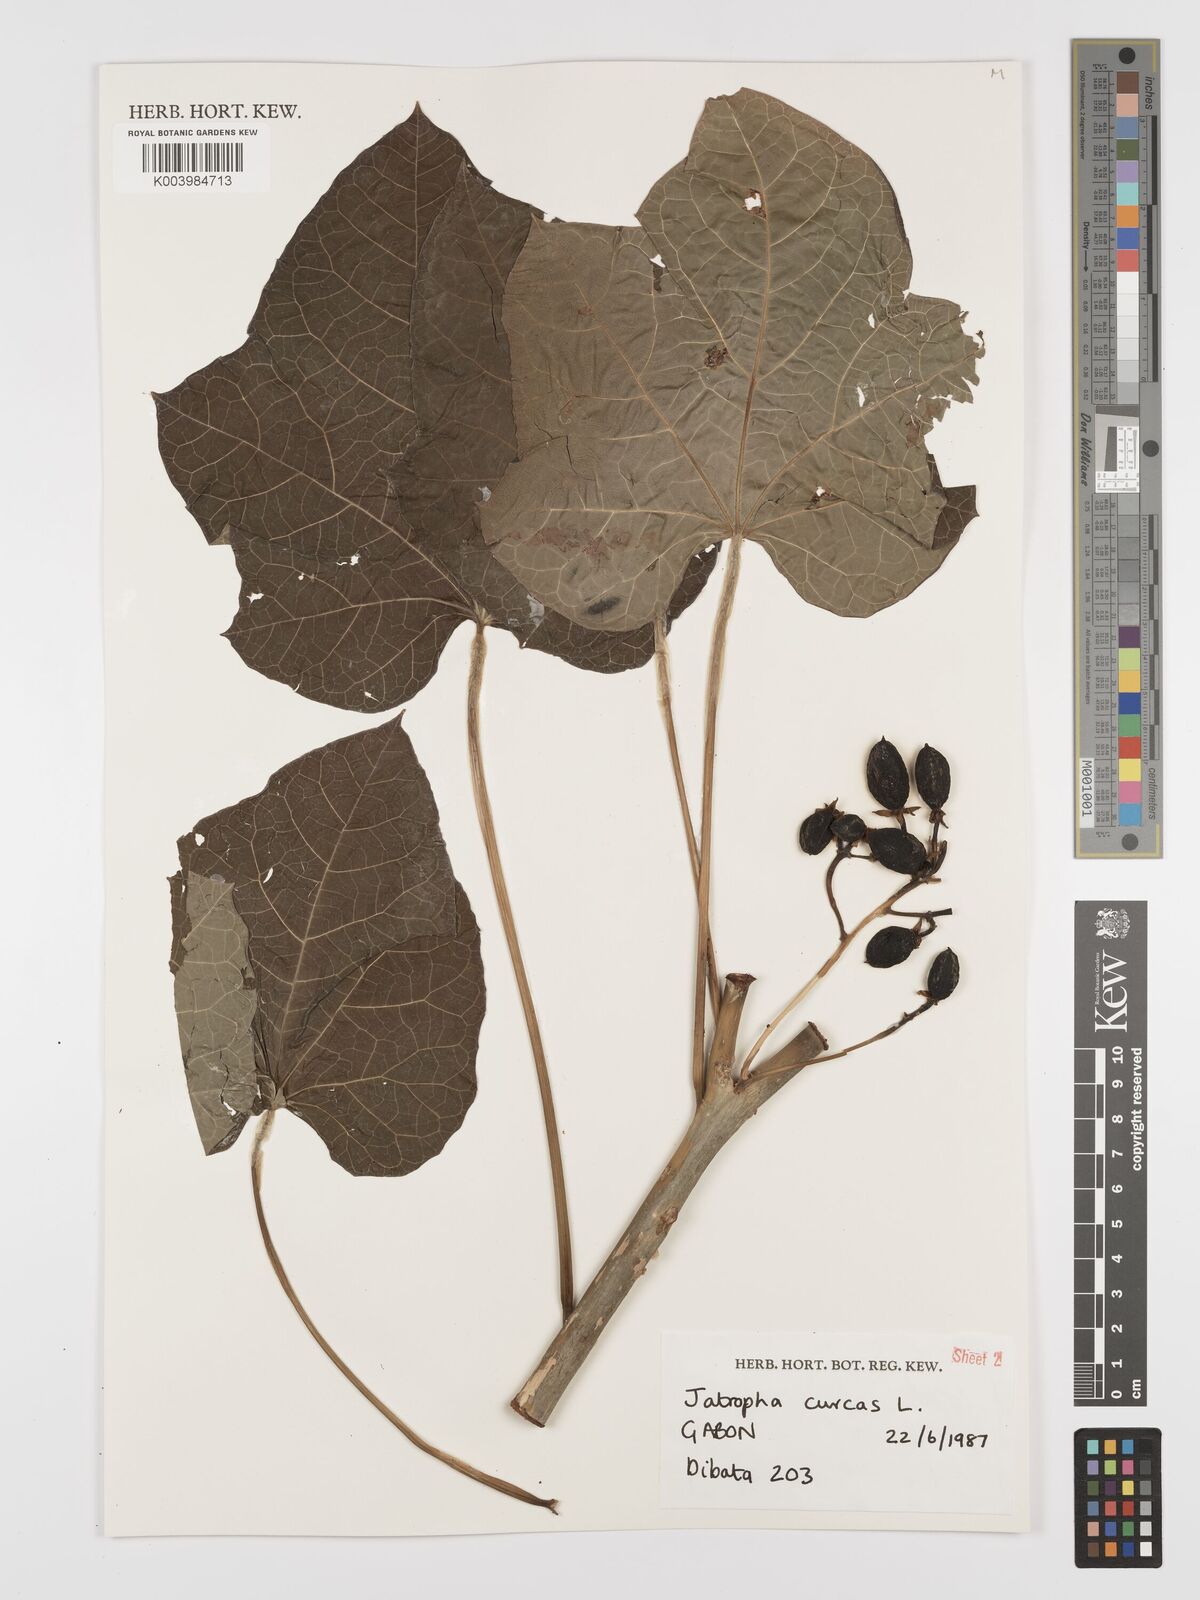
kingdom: Plantae
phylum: Tracheophyta
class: Magnoliopsida
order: Malpighiales
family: Euphorbiaceae
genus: Jatropha
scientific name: Jatropha curcas
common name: Barbados nut
